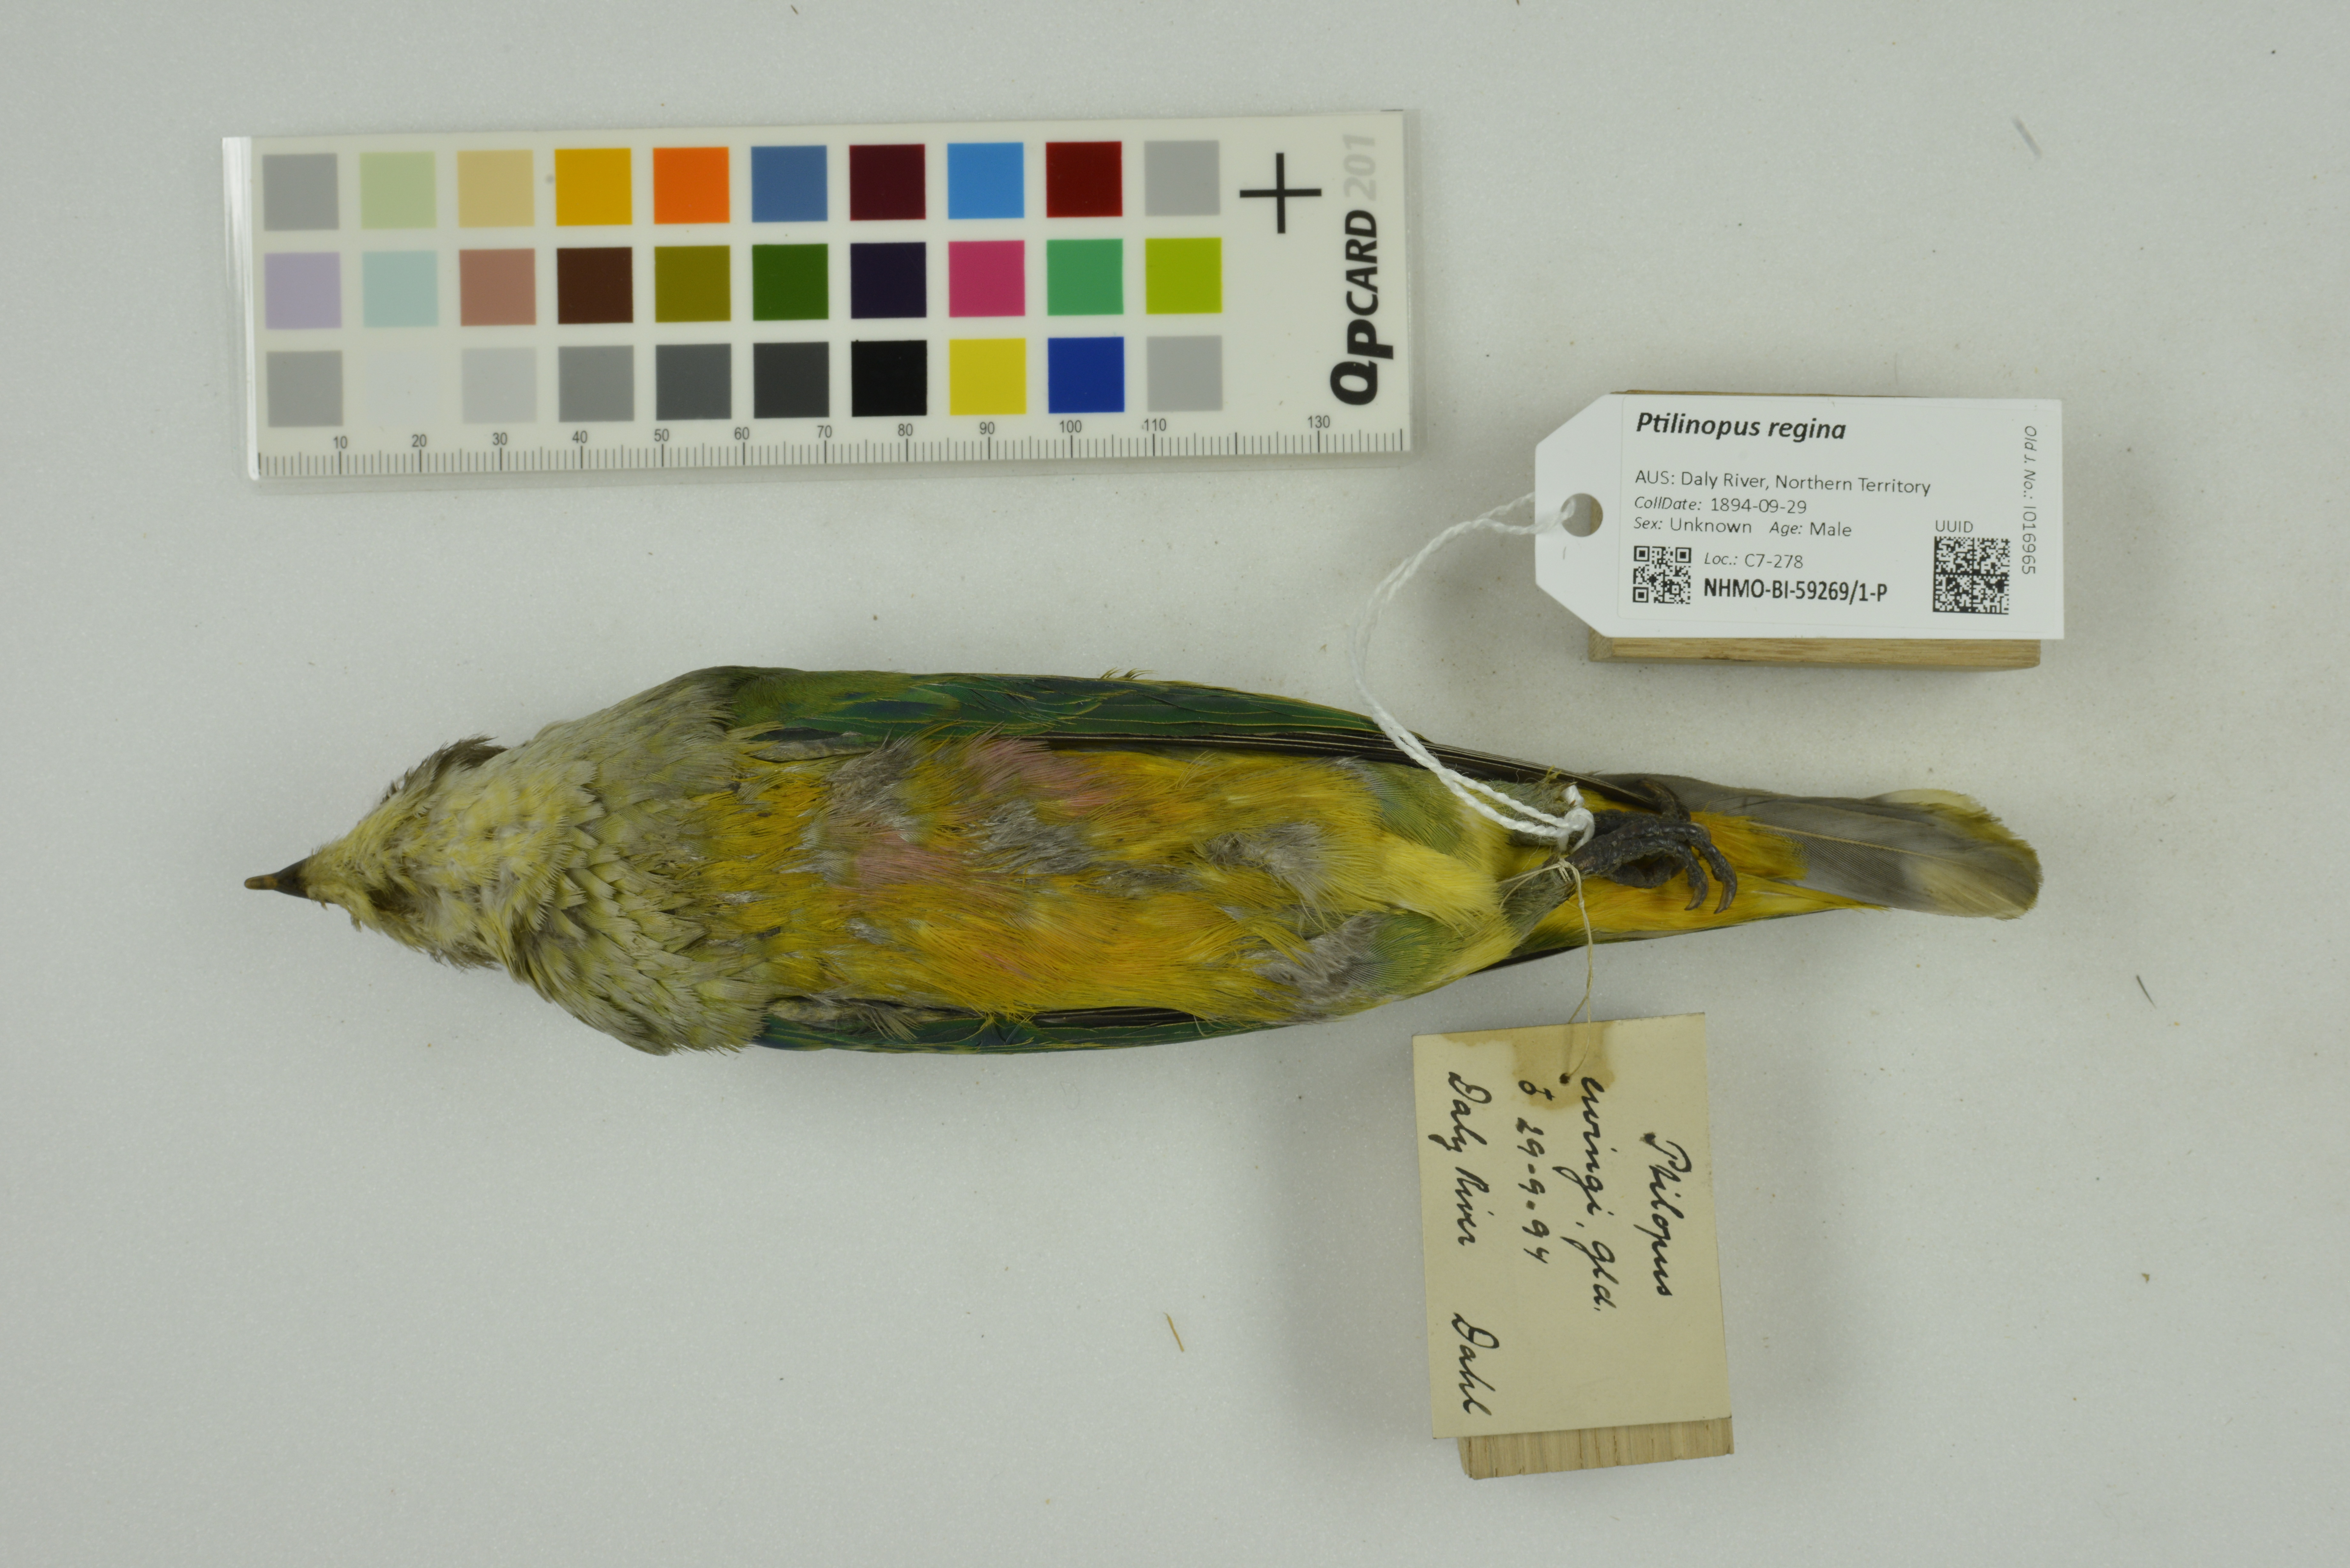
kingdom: Animalia
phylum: Chordata
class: Aves
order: Columbiformes
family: Columbidae
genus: Ptilinopus
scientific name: Ptilinopus regina
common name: Rose-crowned fruit dove
